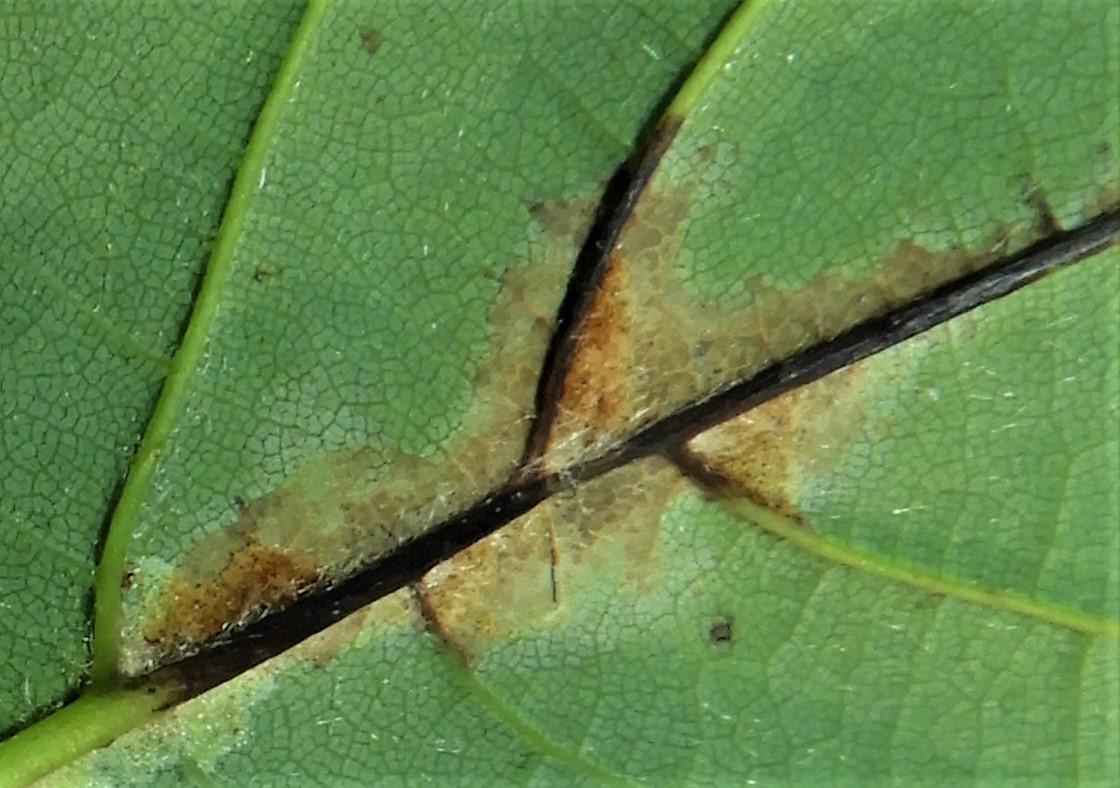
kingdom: Fungi
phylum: Ascomycota
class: Sordariomycetes
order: Diaporthales
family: Gnomoniaceae
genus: Pleuroceras
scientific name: Pleuroceras pseudoplatani
